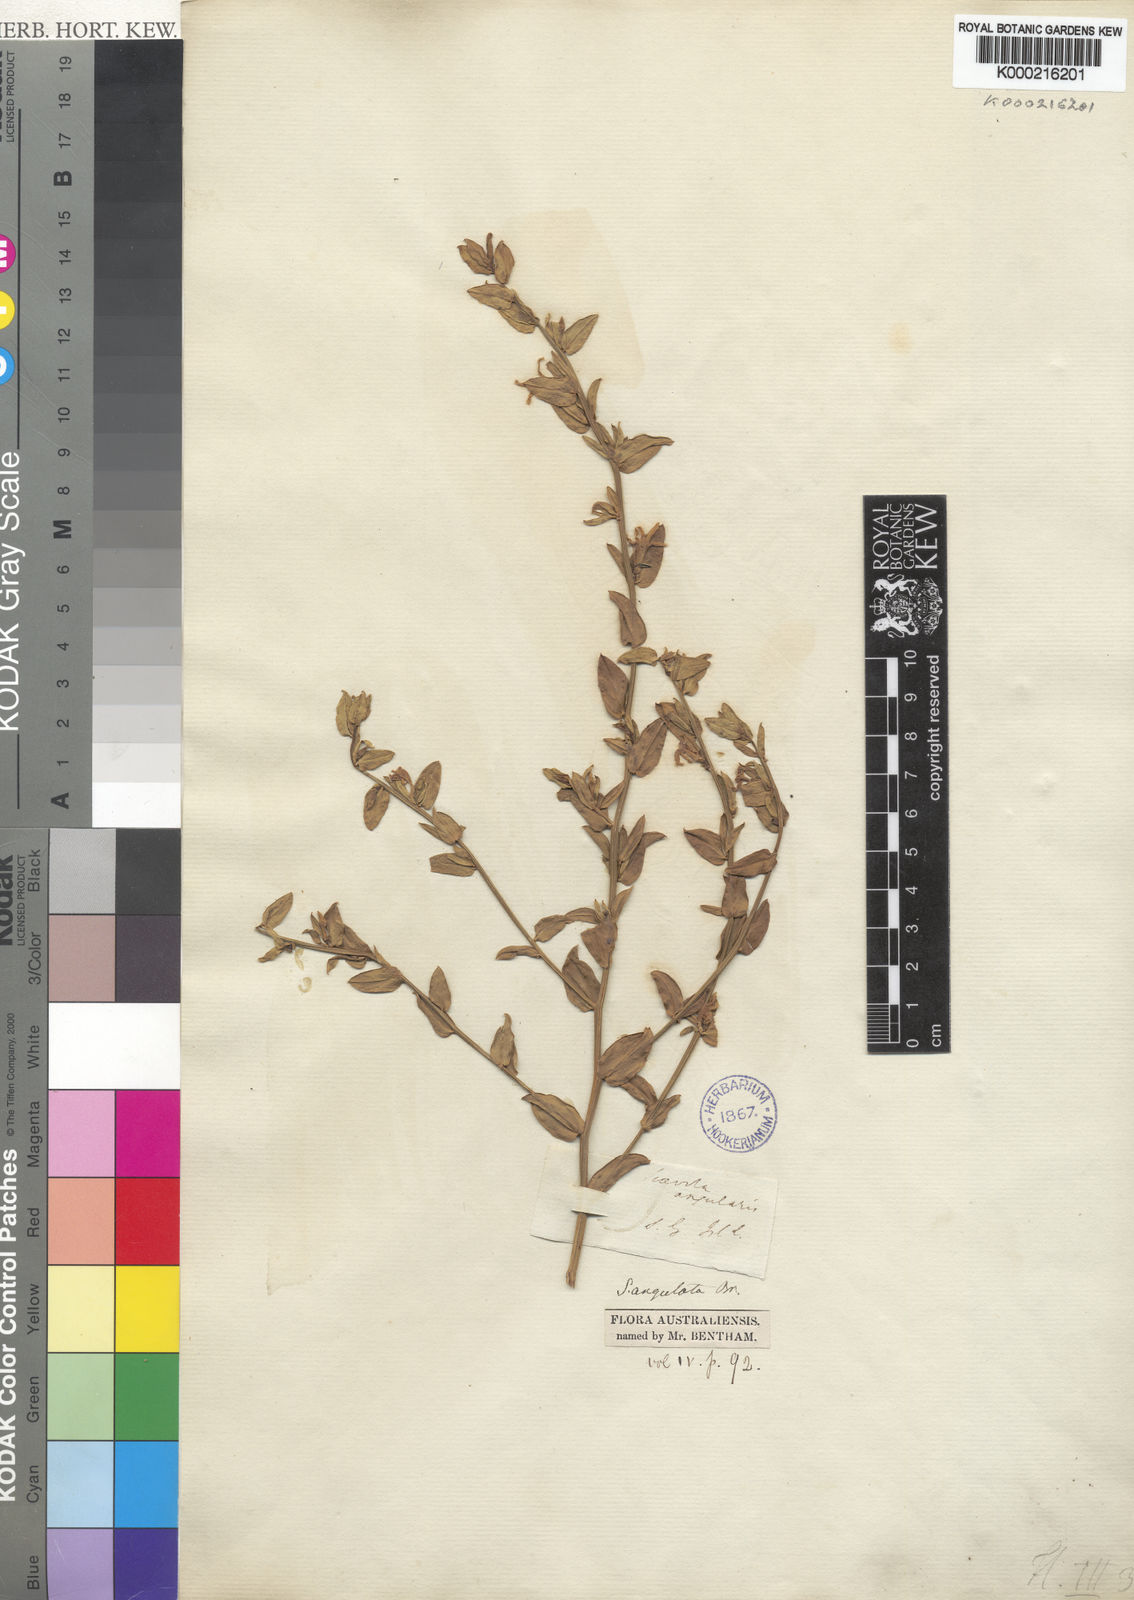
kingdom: Plantae
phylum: Tracheophyta
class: Magnoliopsida
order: Asterales
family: Goodeniaceae
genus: Scaevola
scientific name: Scaevola angulata
